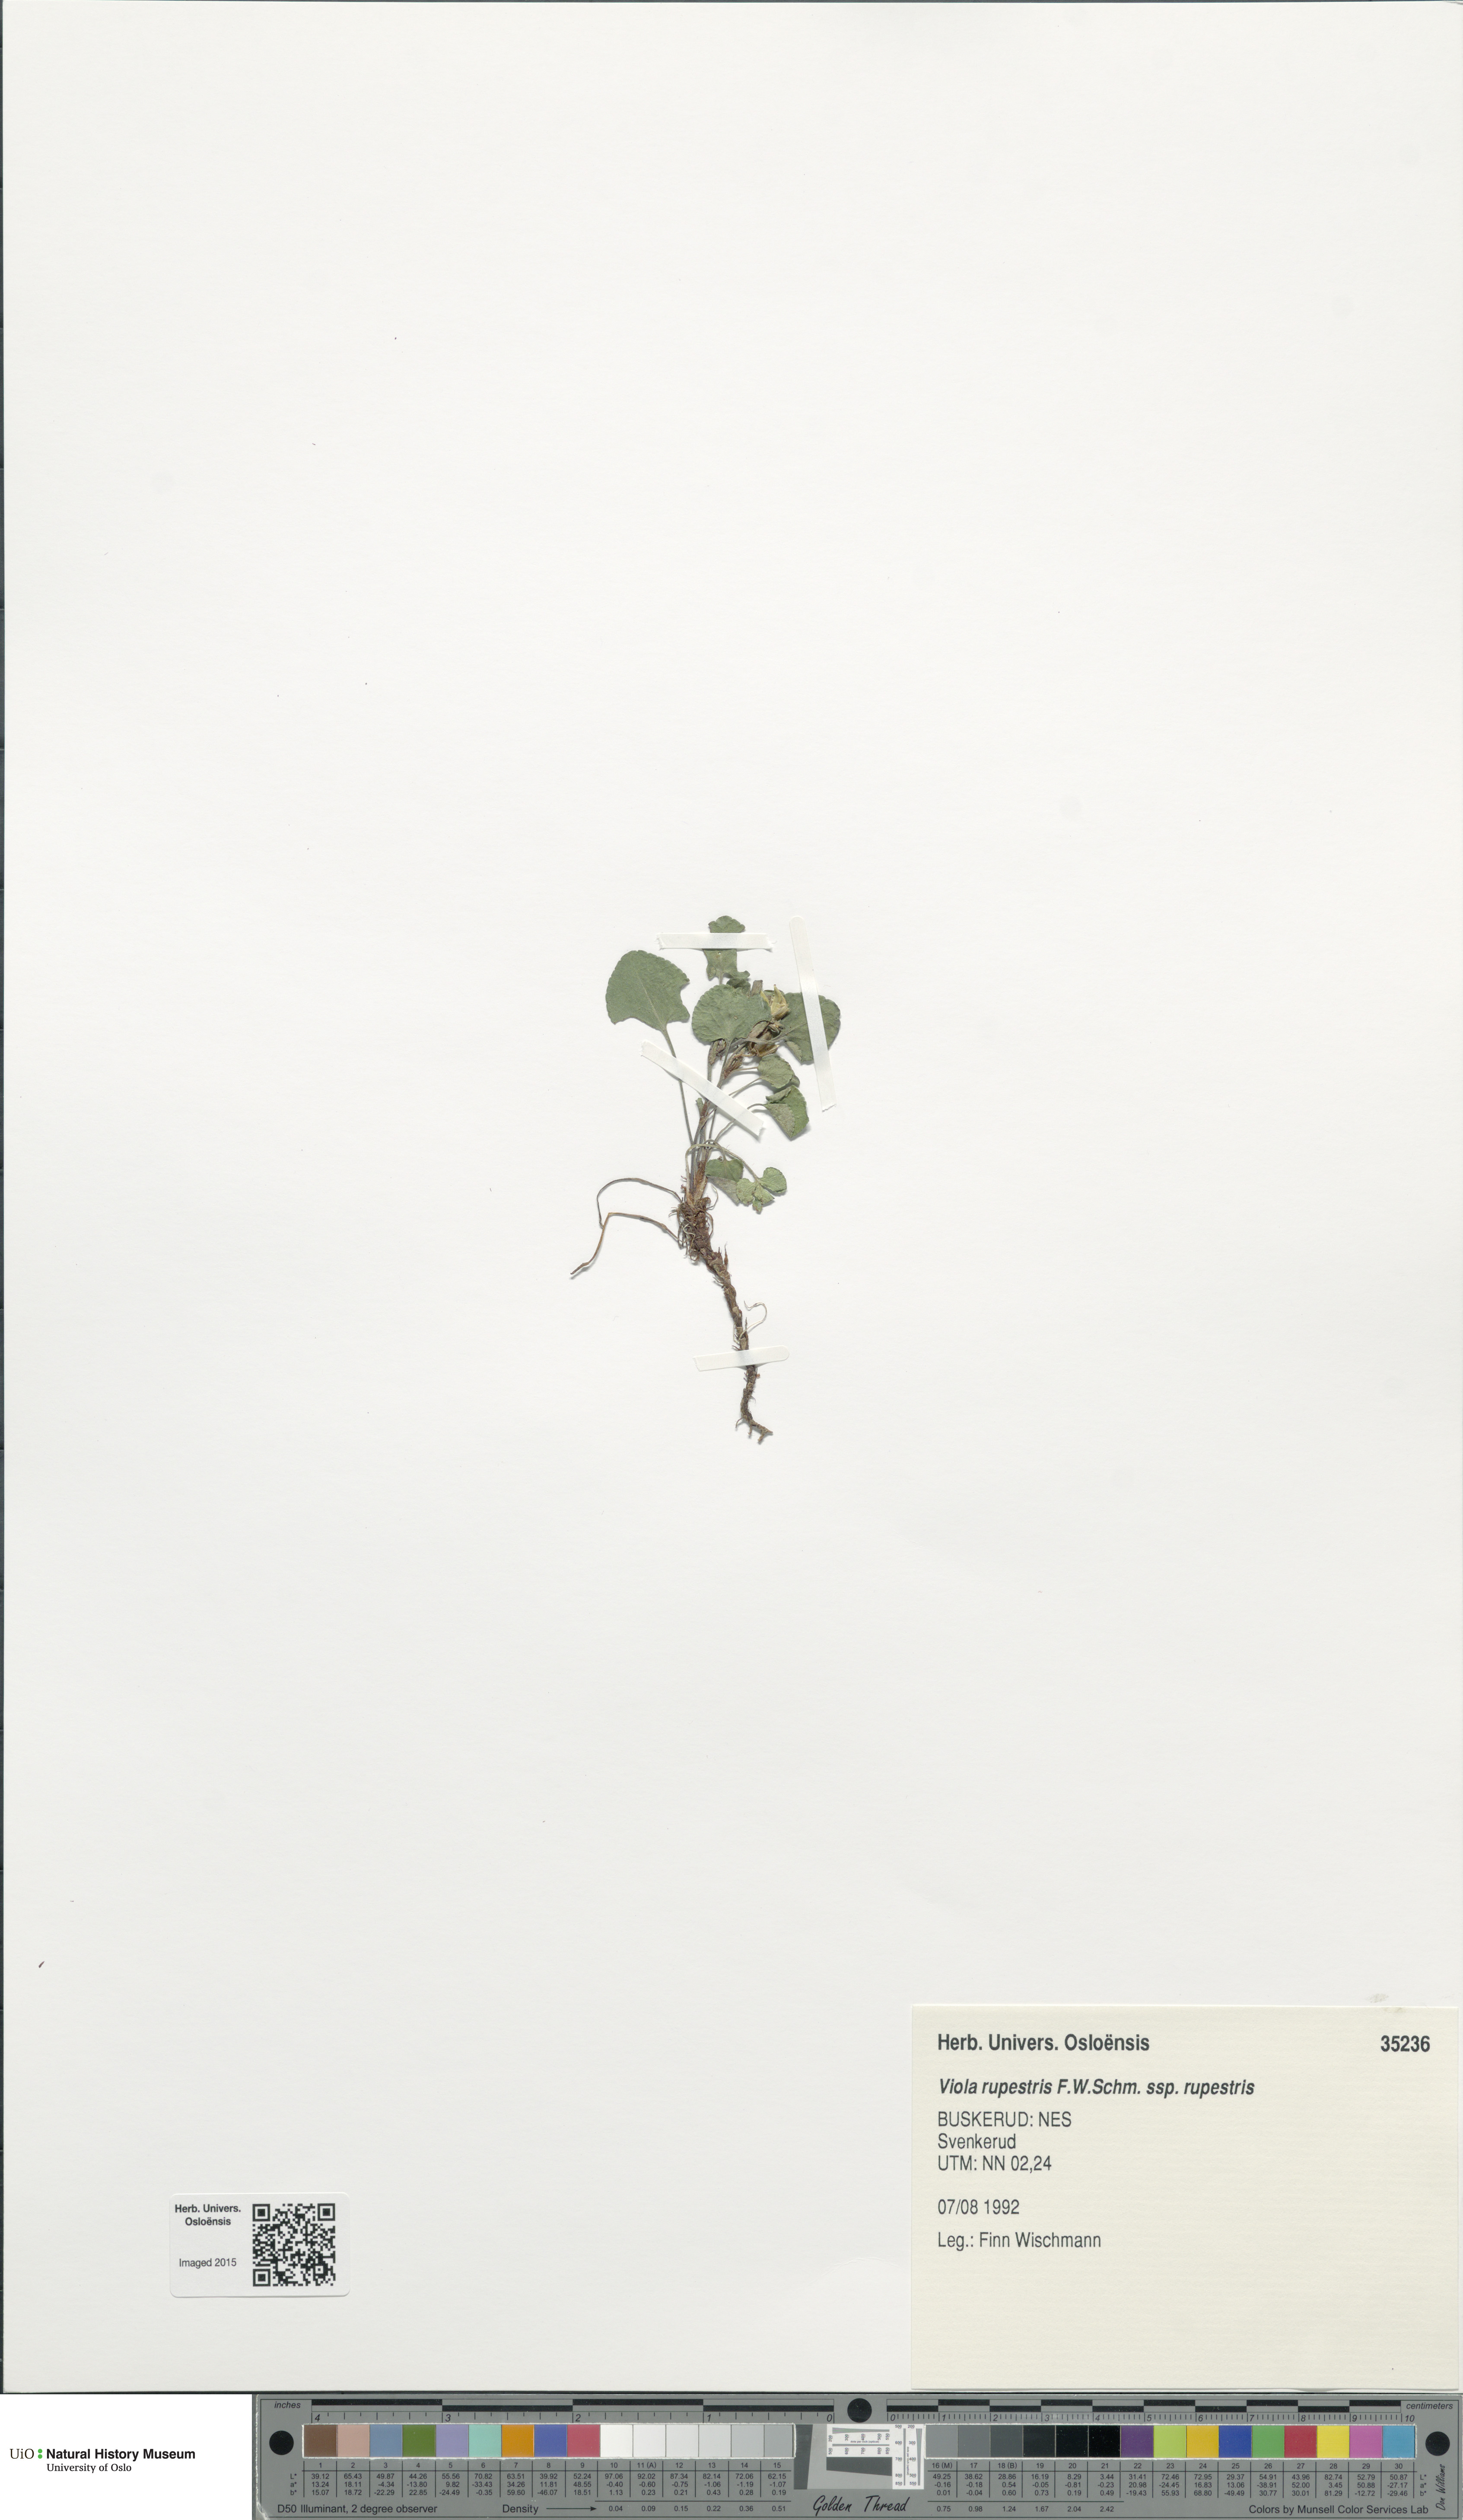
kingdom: Plantae
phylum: Tracheophyta
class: Magnoliopsida
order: Malpighiales
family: Violaceae
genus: Viola
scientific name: Viola
